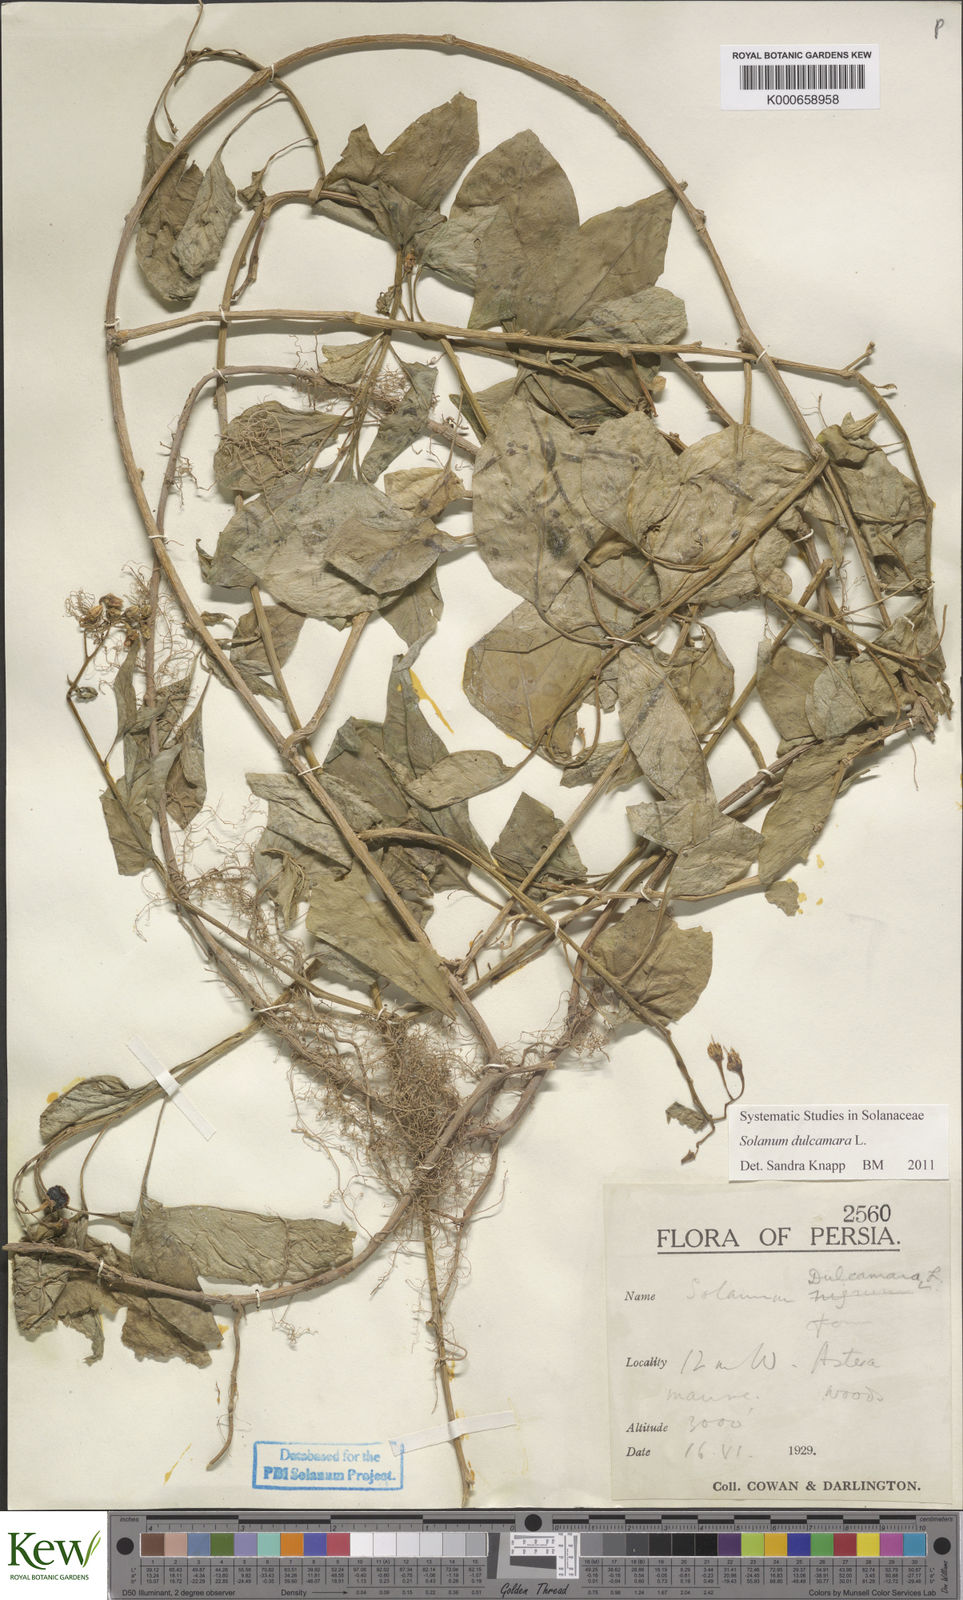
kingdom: Plantae
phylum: Tracheophyta
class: Magnoliopsida
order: Solanales
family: Solanaceae
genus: Solanum
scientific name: Solanum dulcamara
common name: Climbing nightshade
